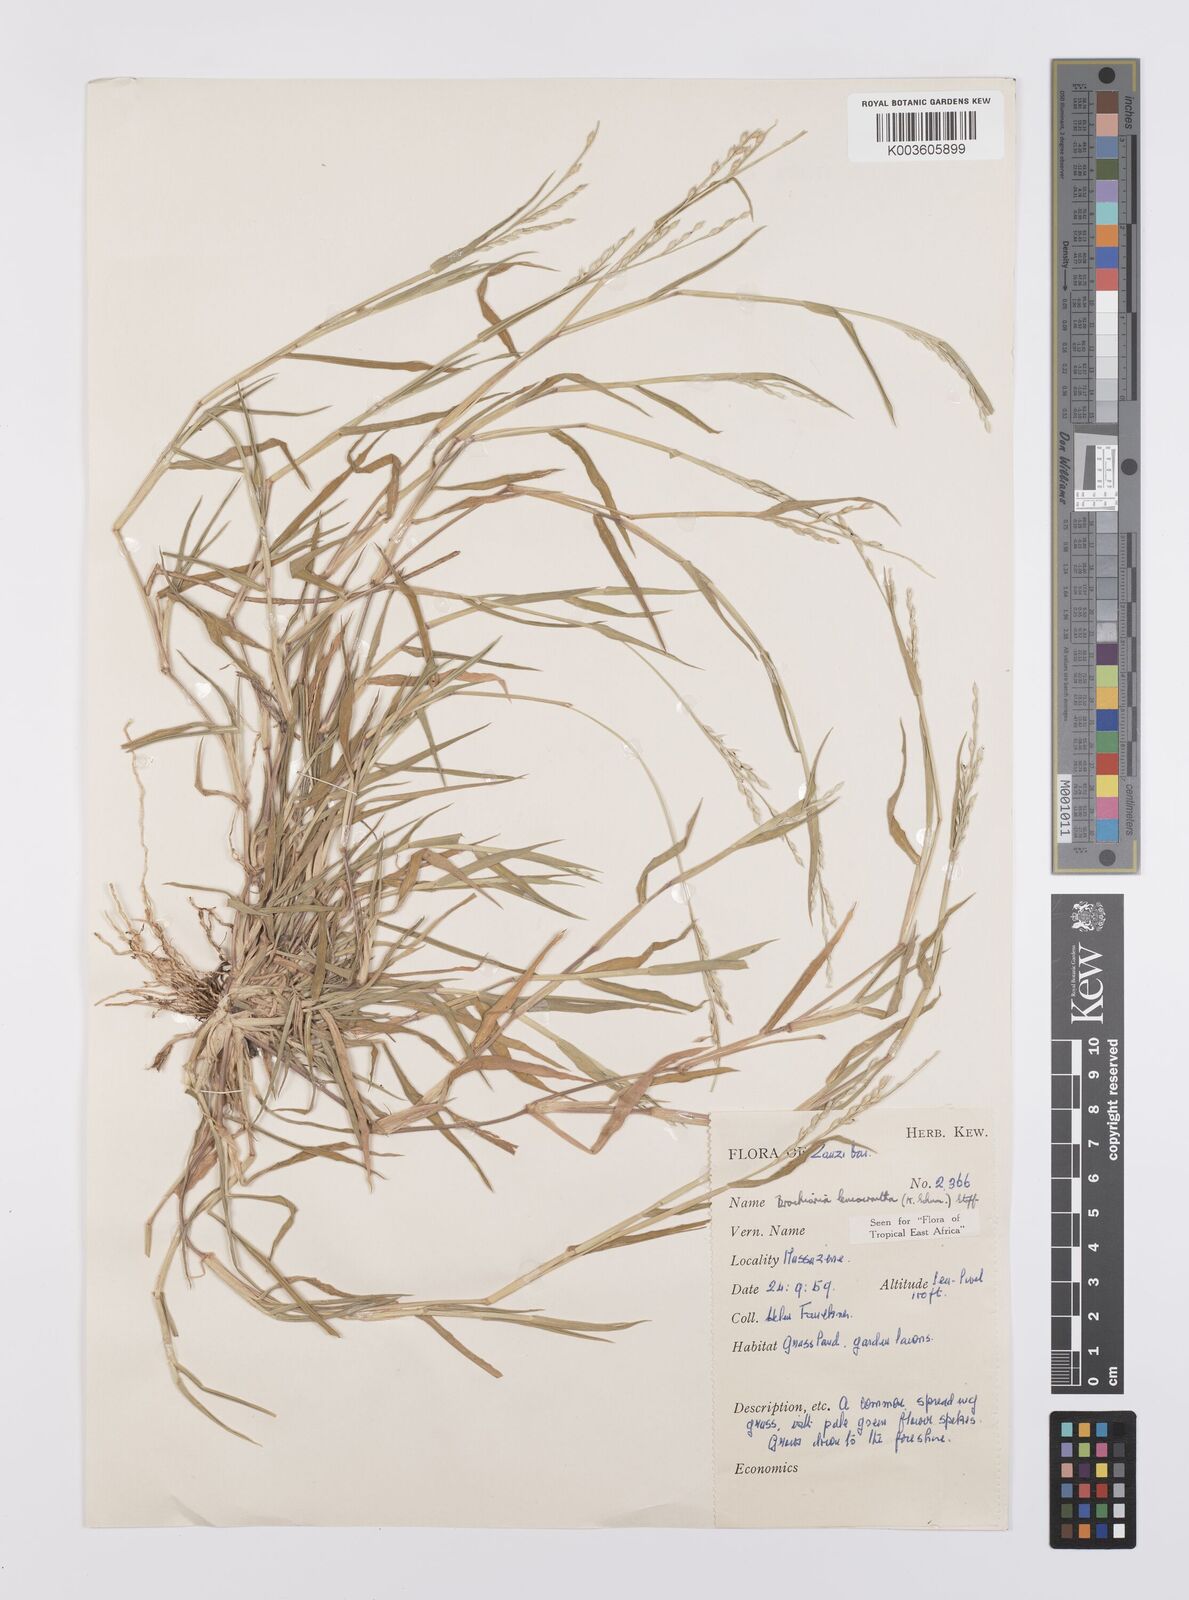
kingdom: Plantae
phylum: Tracheophyta
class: Liliopsida
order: Poales
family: Poaceae
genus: Urochloa
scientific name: Urochloa xantholeuca
